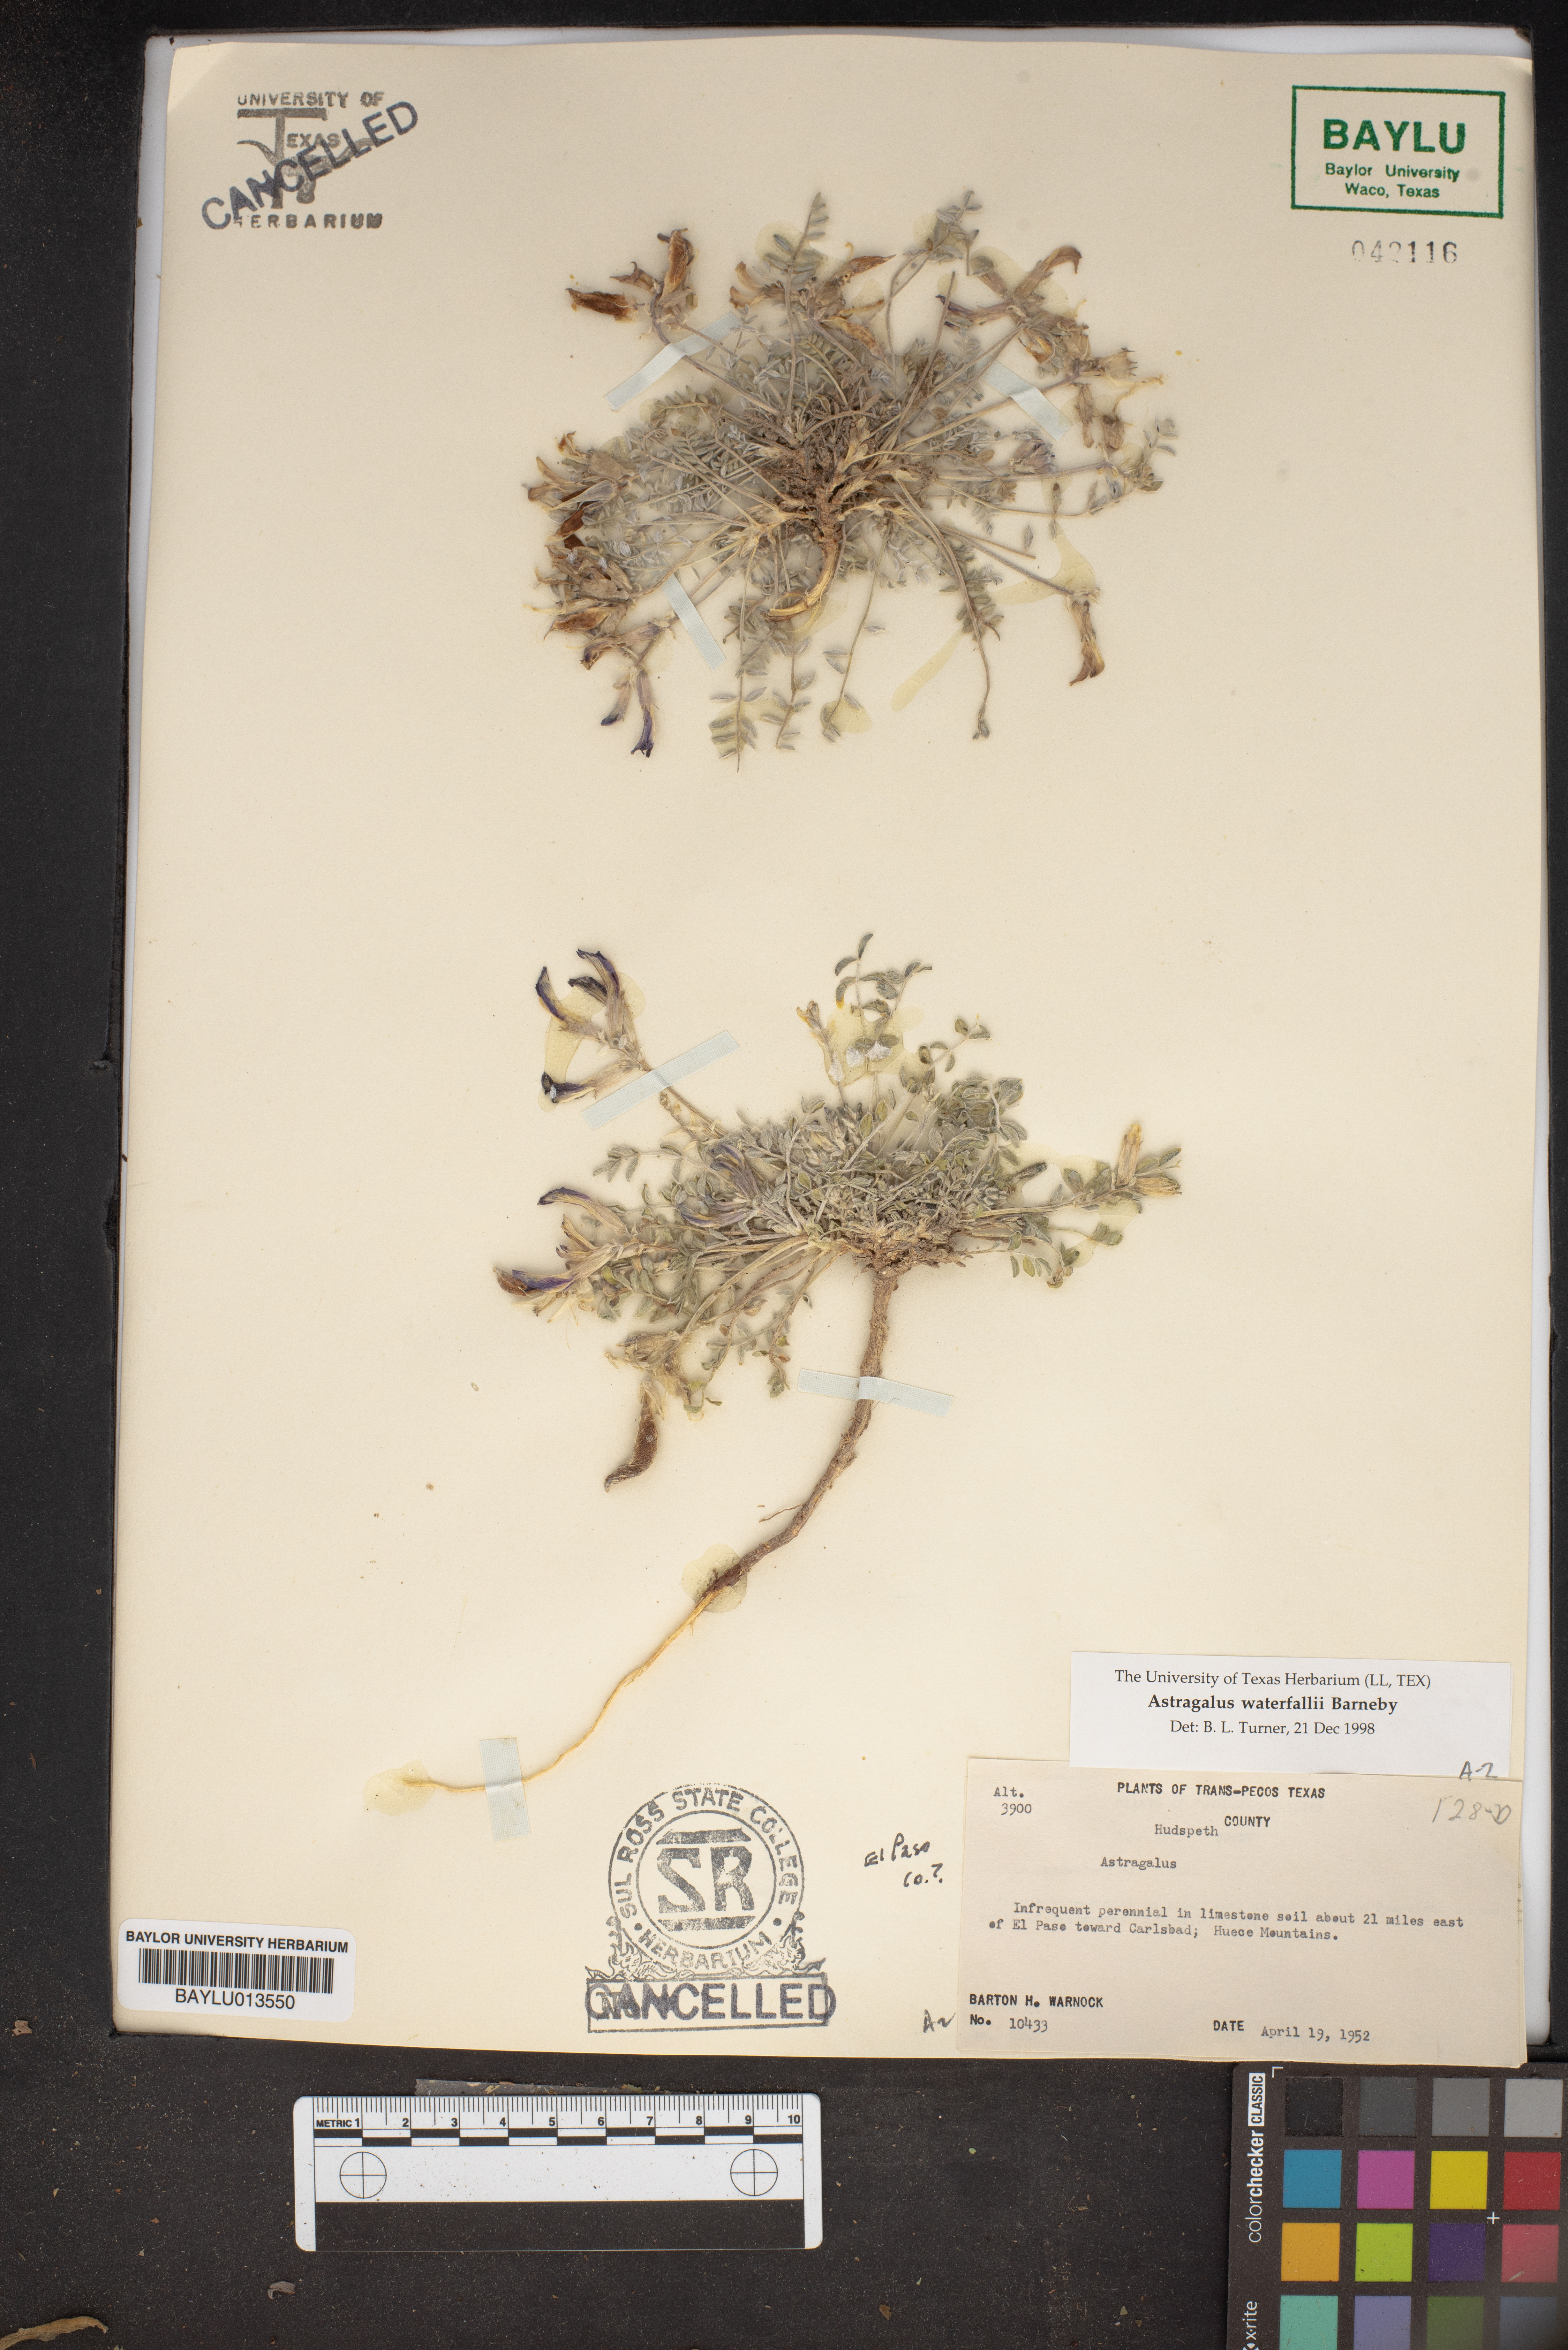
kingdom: Plantae
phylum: Tracheophyta
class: Magnoliopsida
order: Fabales
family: Fabaceae
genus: Astragalus
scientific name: Astragalus waterfallii
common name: Waterfall's milkvetch
